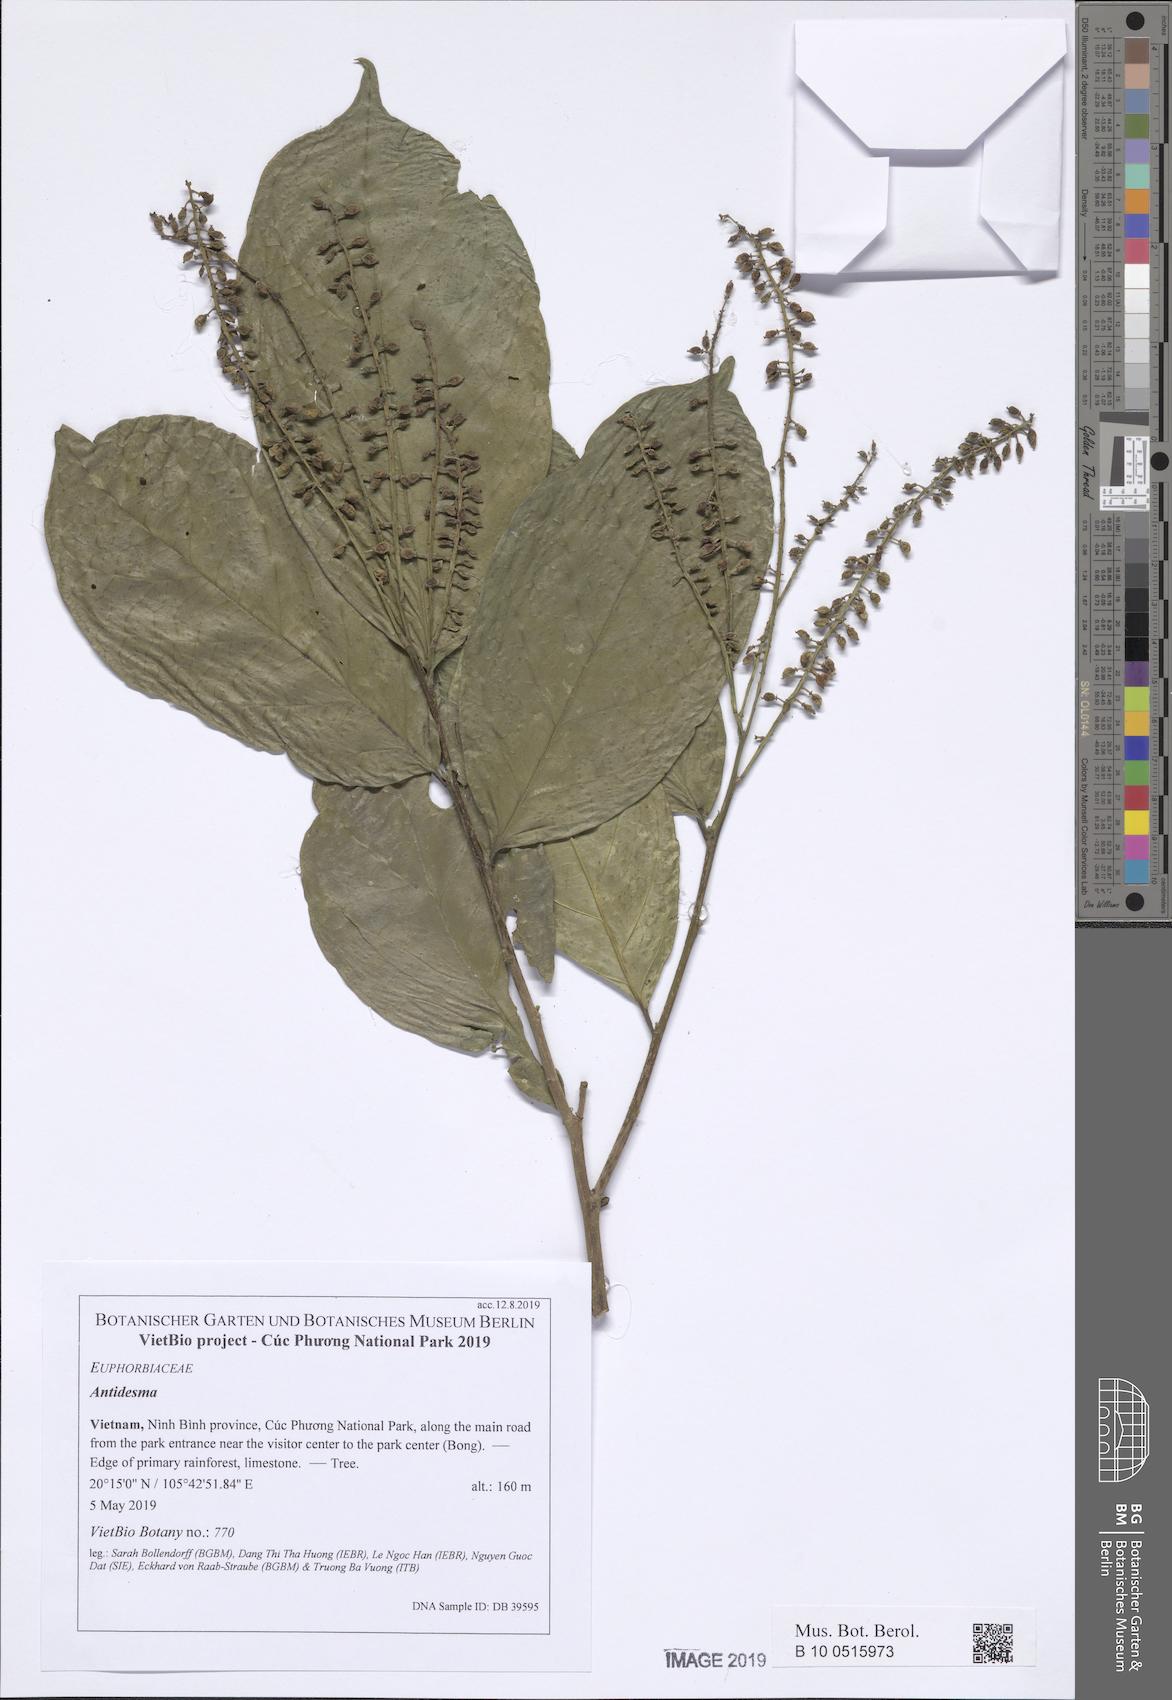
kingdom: Plantae
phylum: Tracheophyta
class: Magnoliopsida
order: Malpighiales
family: Phyllanthaceae
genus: Antidesma
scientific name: Antidesma bunius
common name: Chinese-laurel
